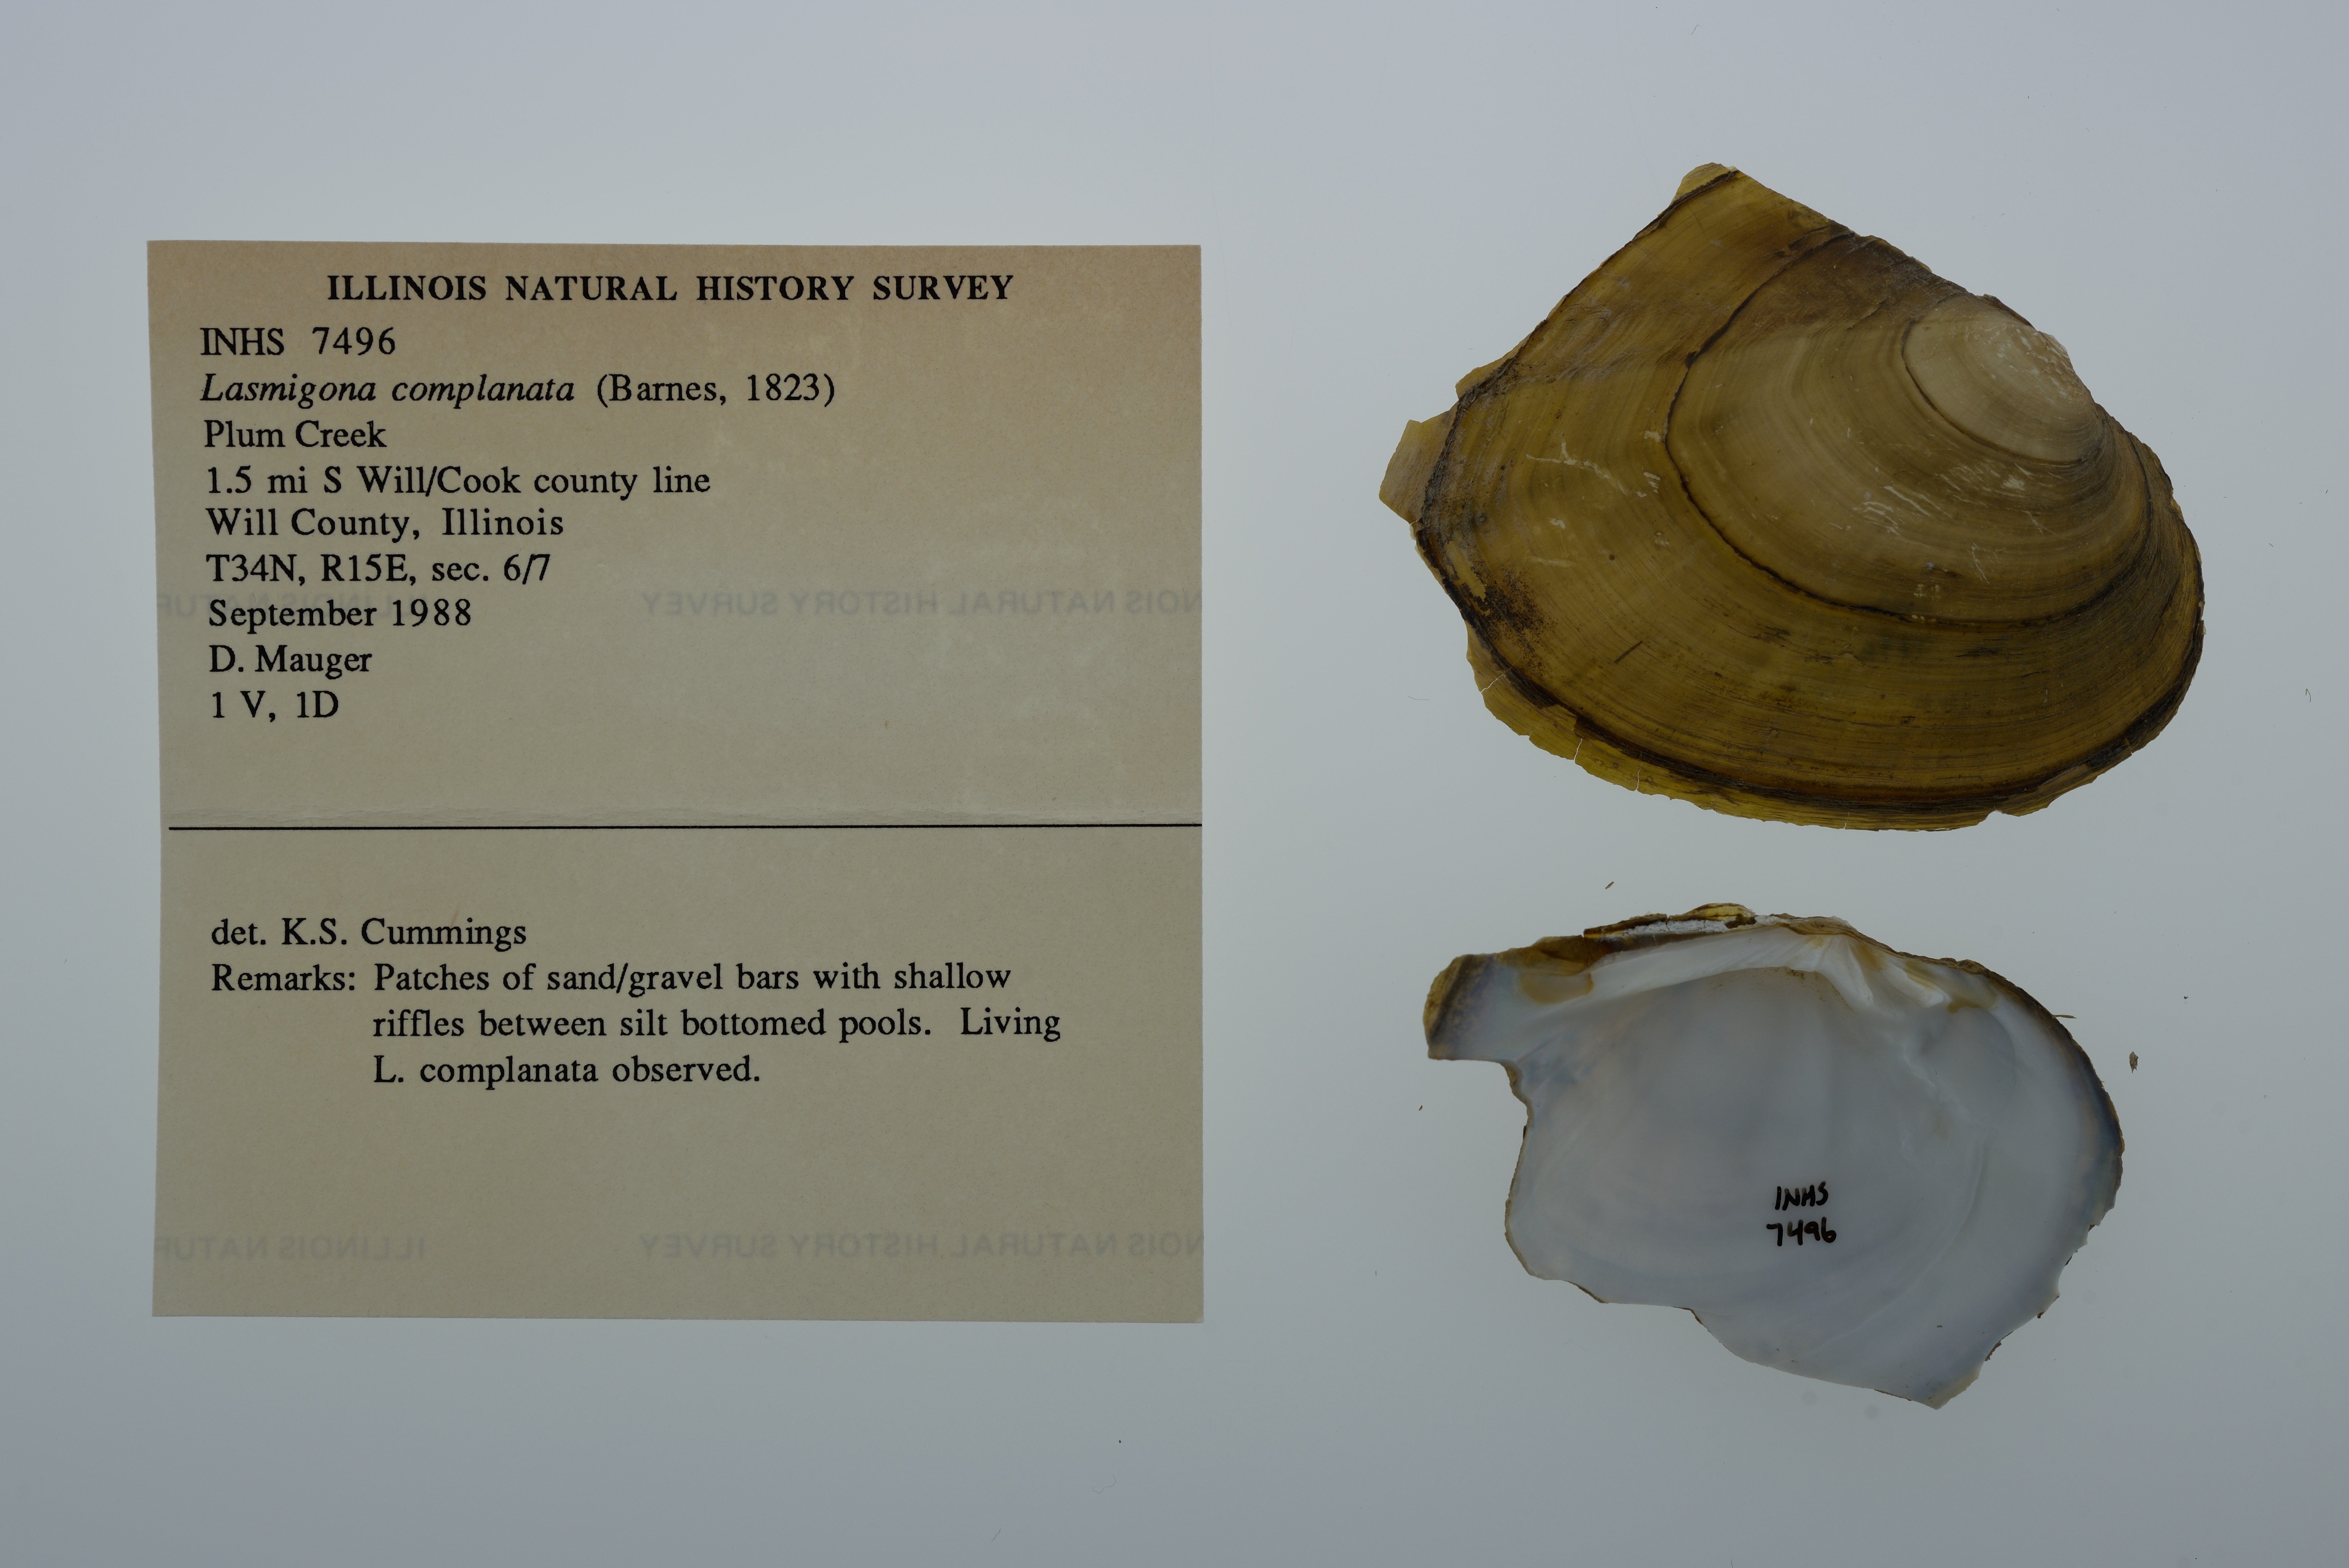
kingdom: Animalia
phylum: Mollusca
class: Bivalvia
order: Unionida
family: Unionidae
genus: Lasmigona
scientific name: Lasmigona complanata
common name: White heelsplitter
